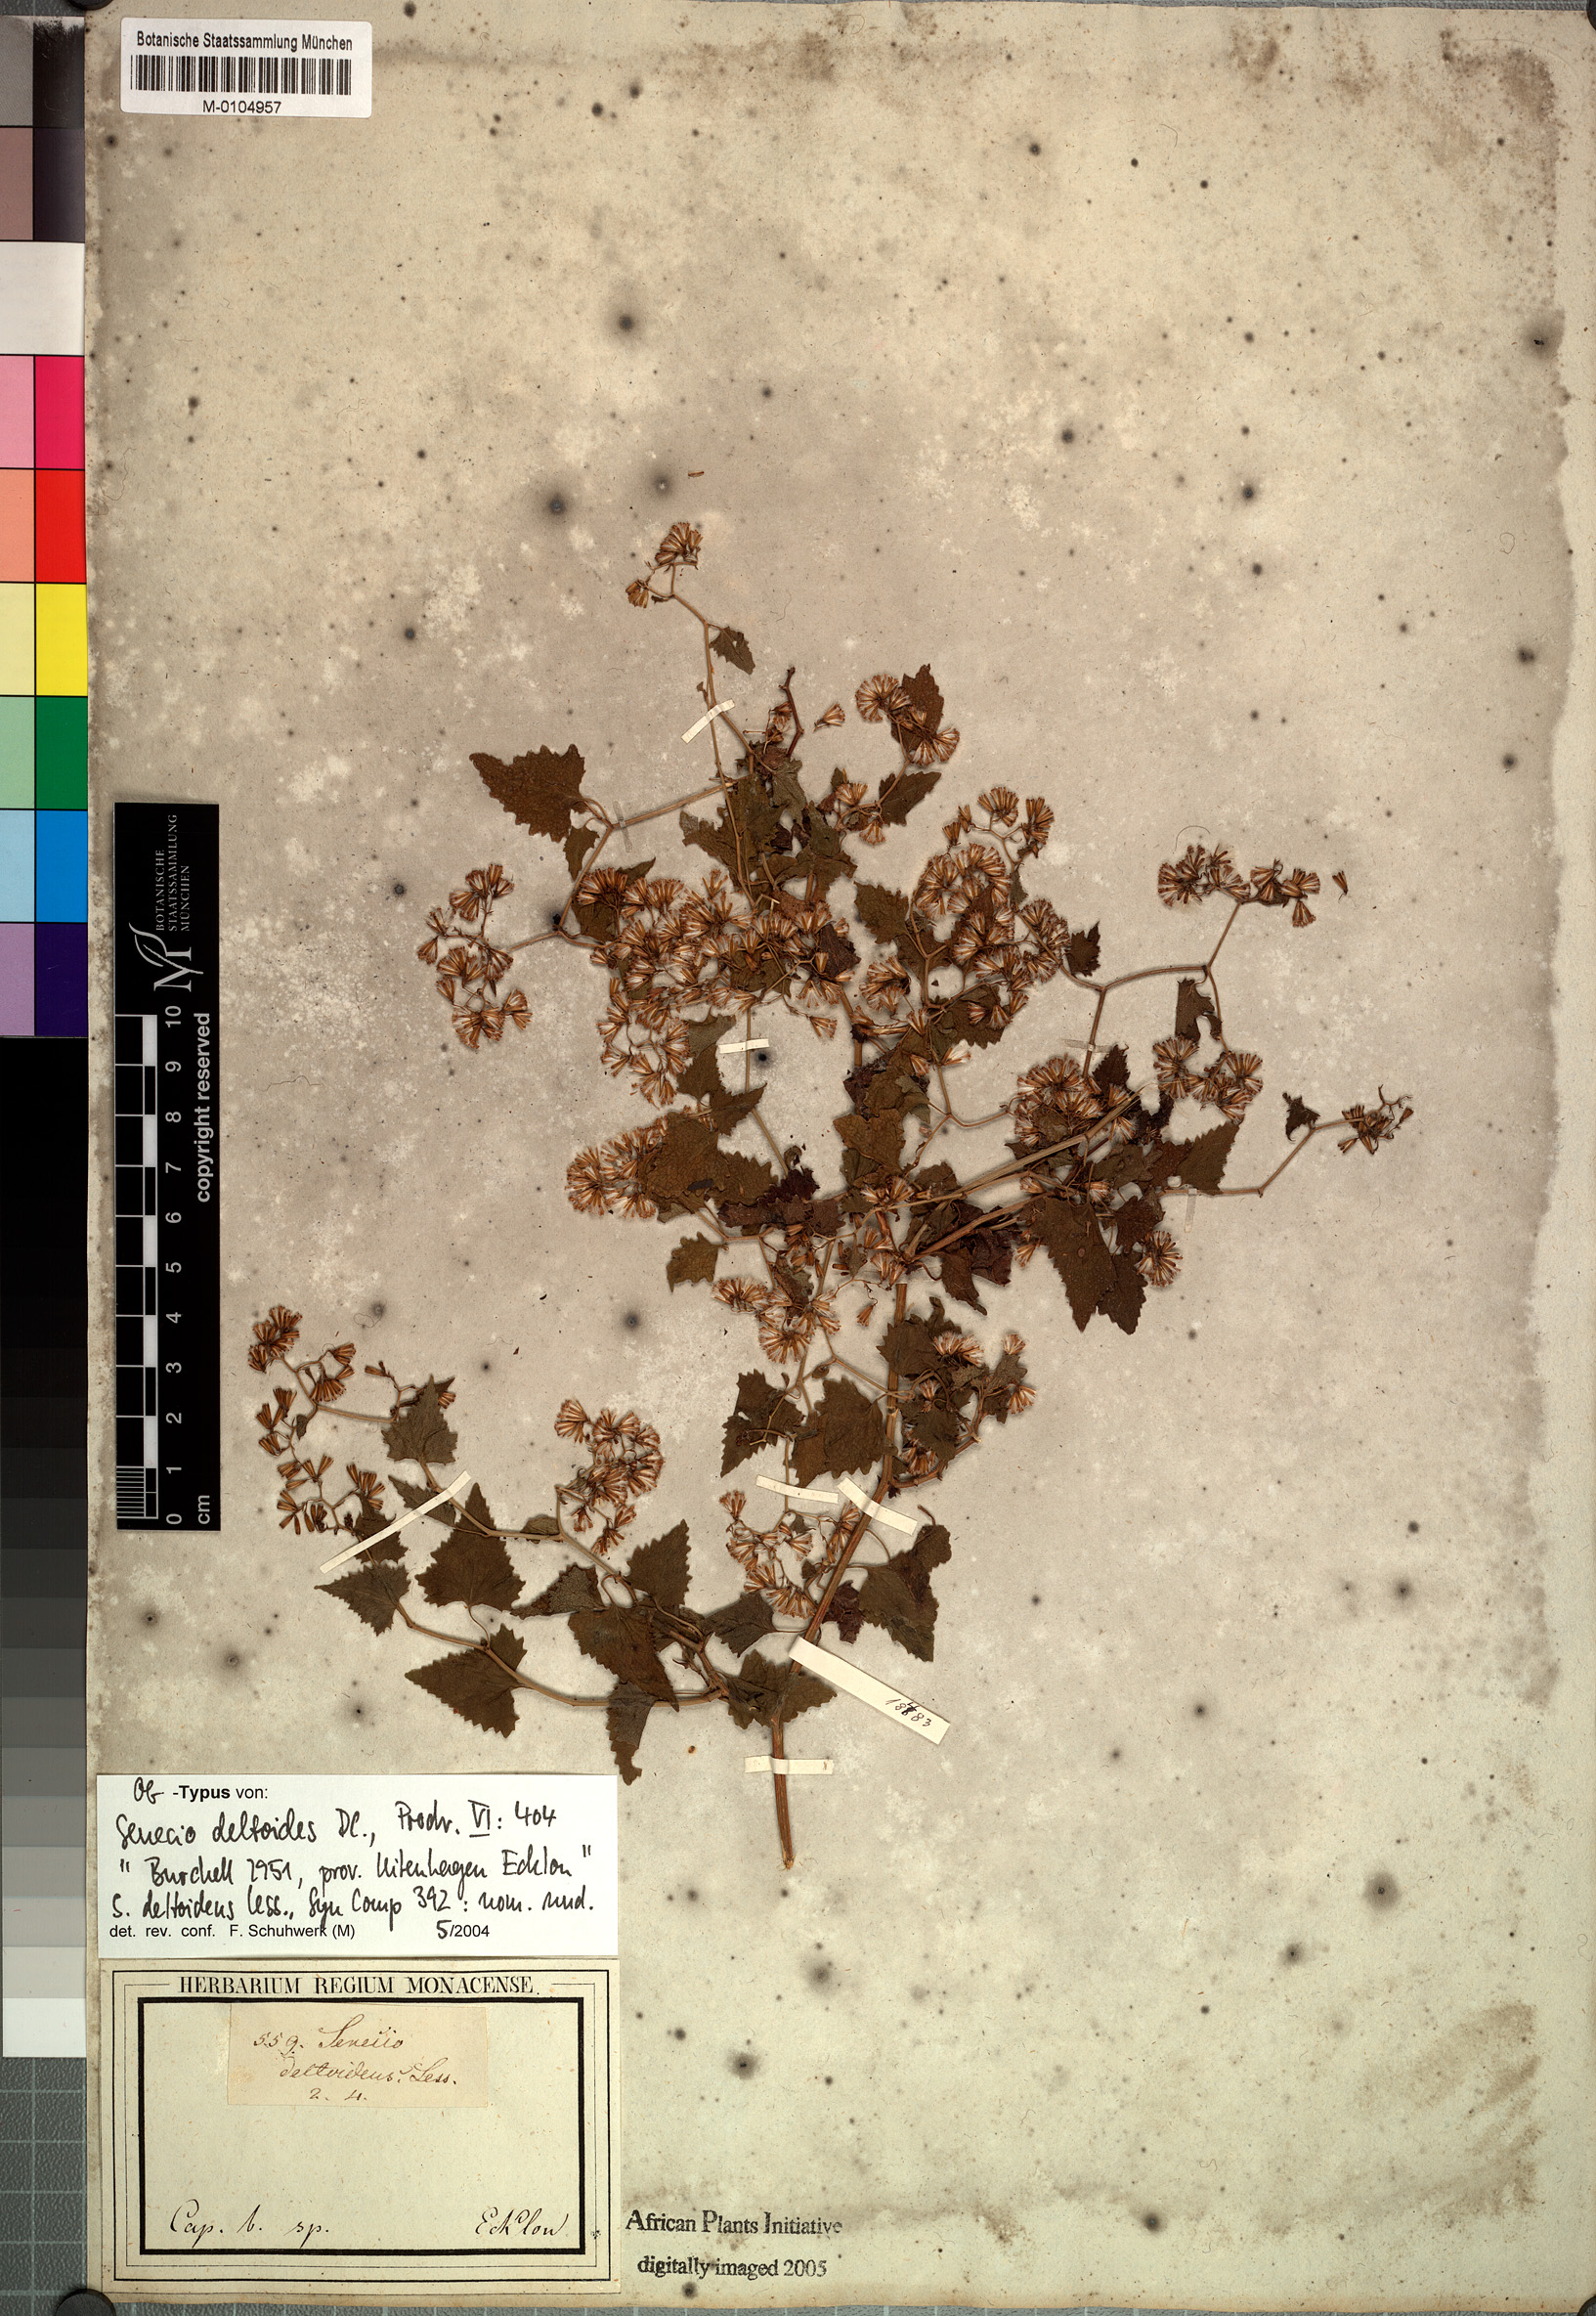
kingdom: Plantae
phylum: Tracheophyta
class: Magnoliopsida
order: Asterales
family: Asteraceae
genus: Senecio
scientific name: Senecio deltoideus
